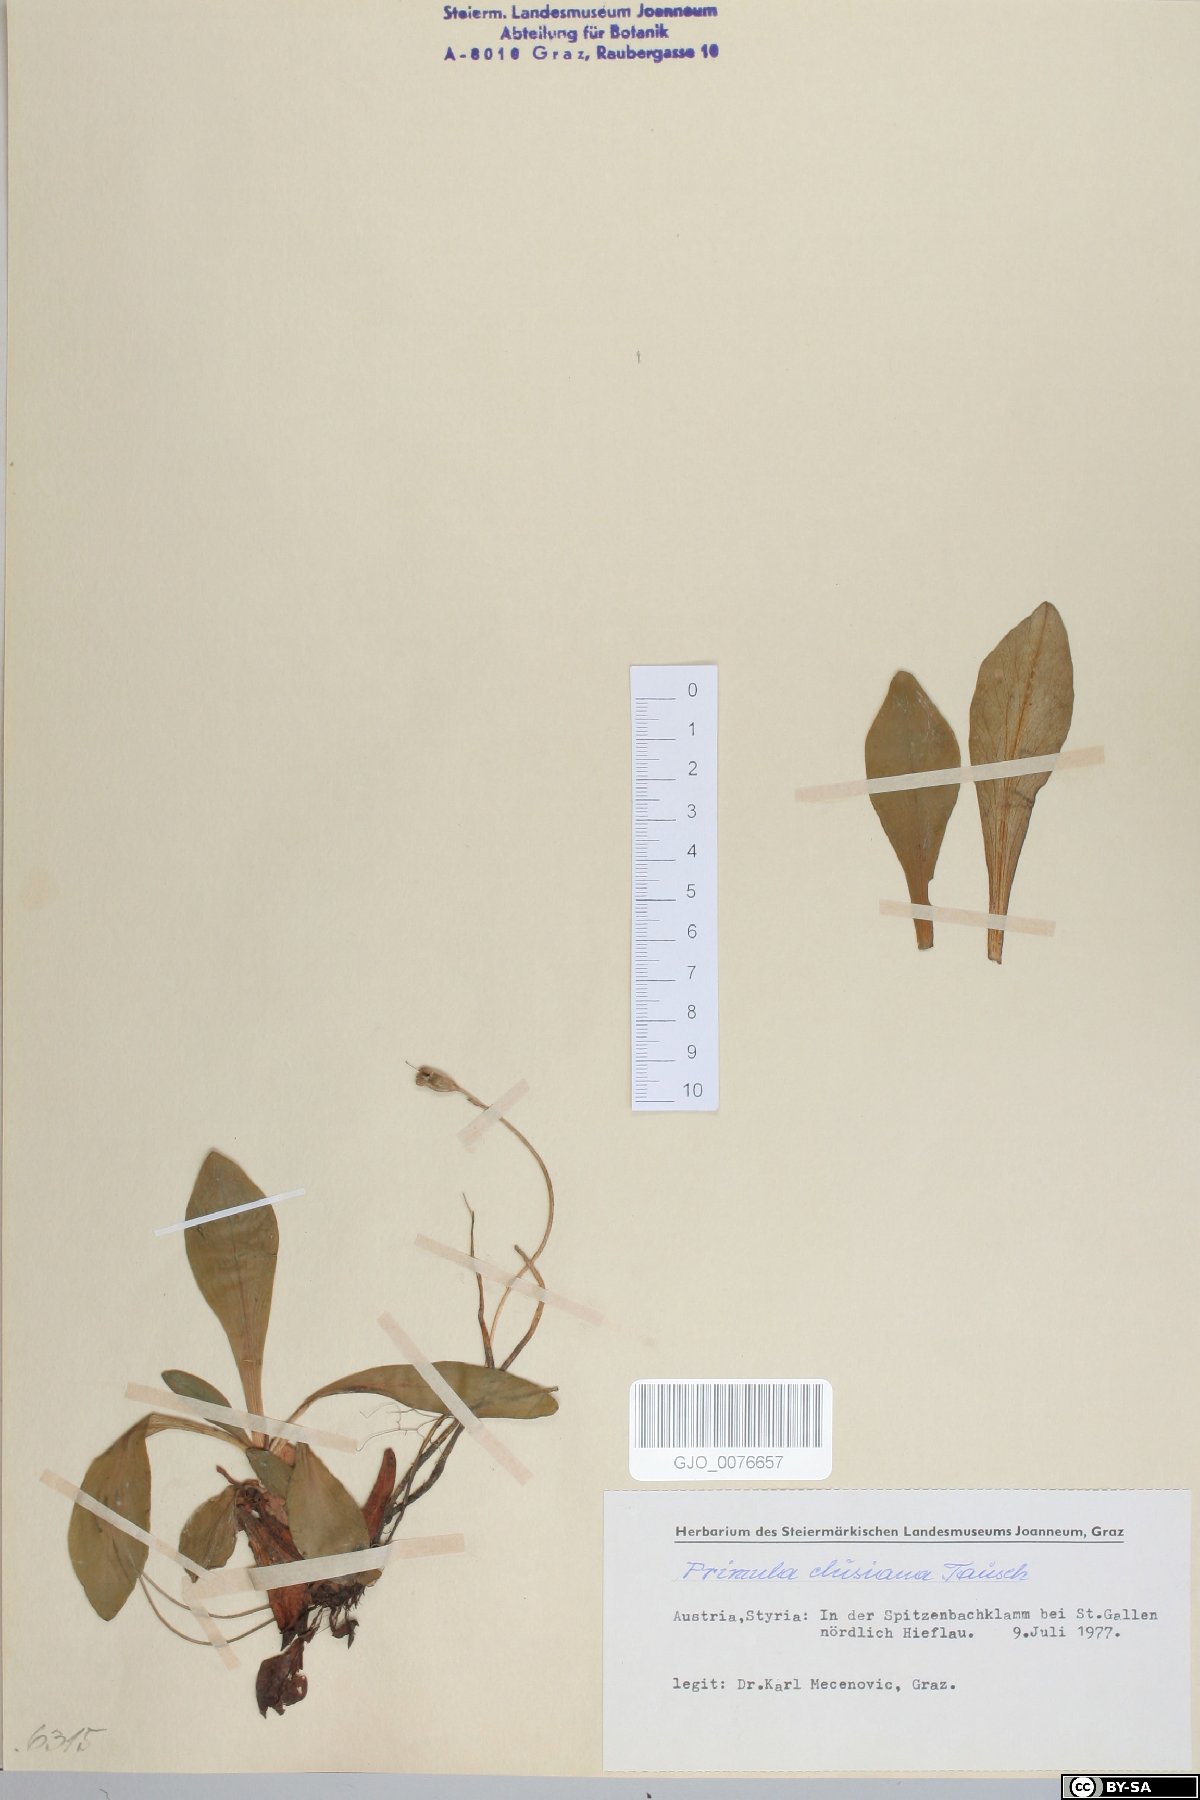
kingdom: Plantae
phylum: Tracheophyta
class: Magnoliopsida
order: Ericales
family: Primulaceae
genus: Primula
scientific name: Primula clusiana
